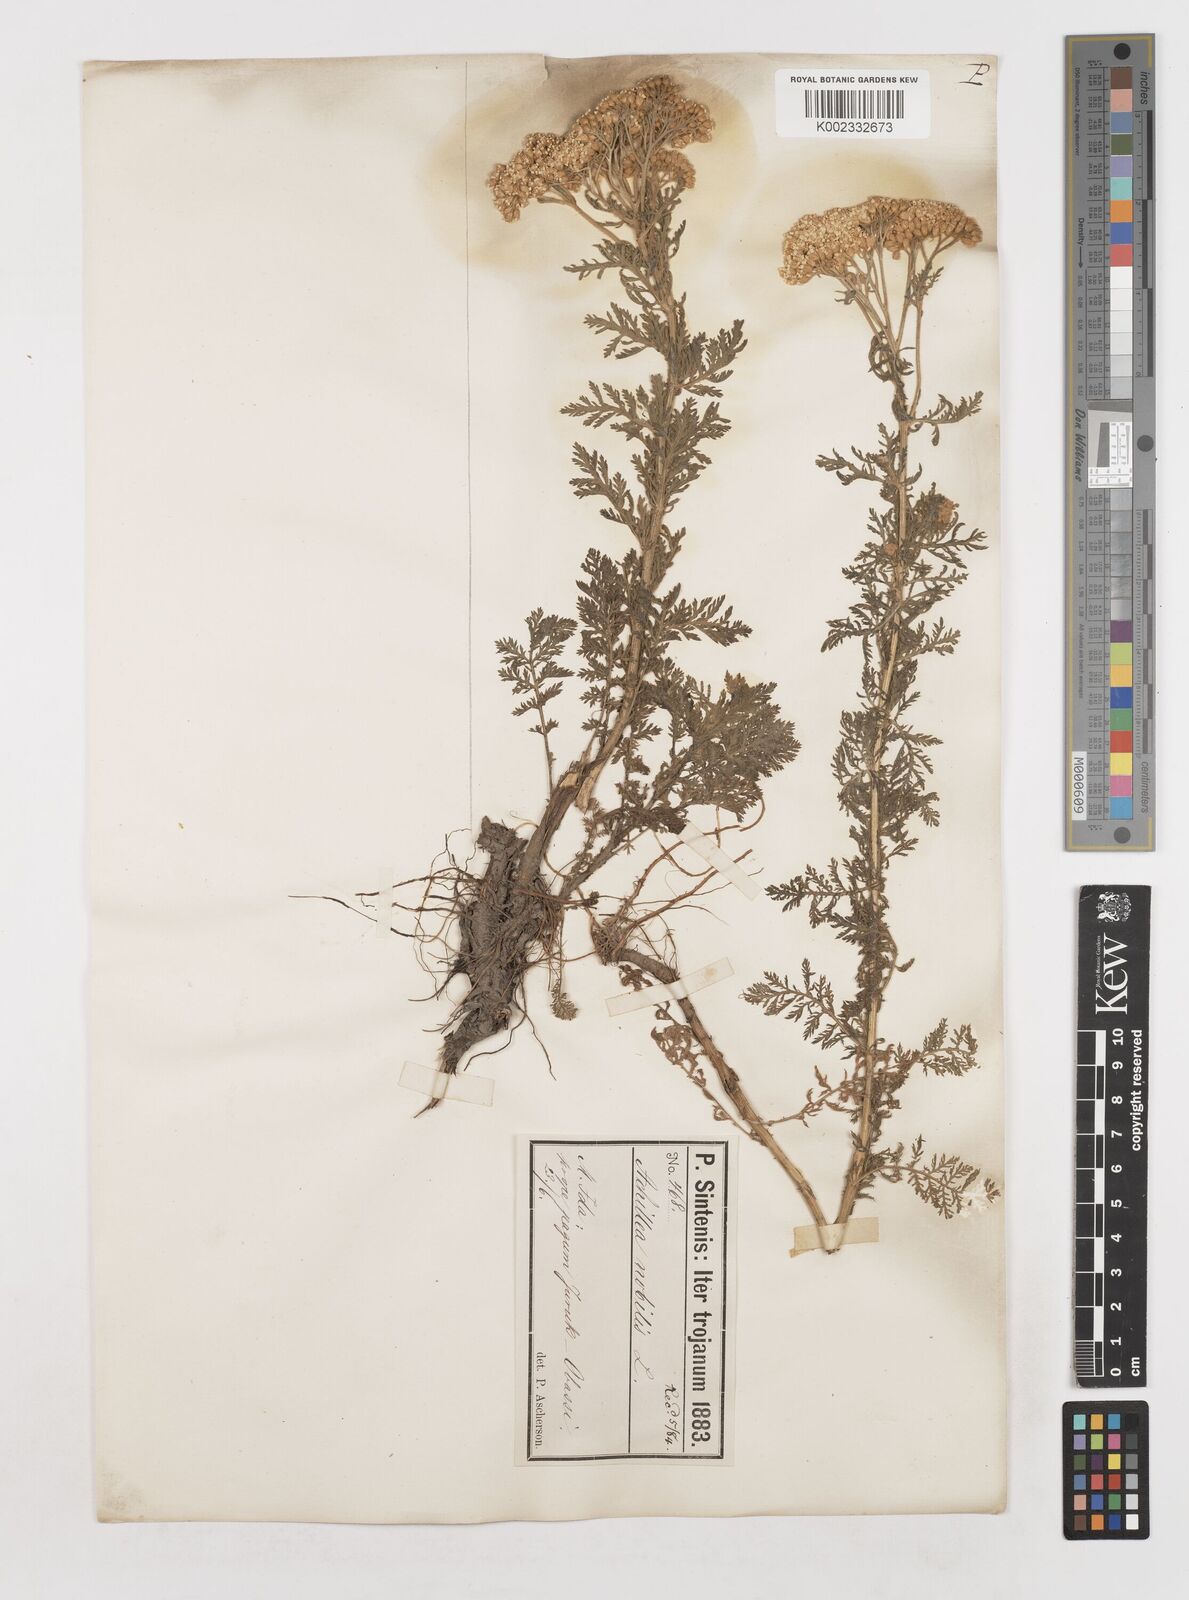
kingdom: Plantae
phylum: Tracheophyta
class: Magnoliopsida
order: Asterales
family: Asteraceae
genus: Achillea
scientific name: Achillea nobilis
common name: Noble yarrow
